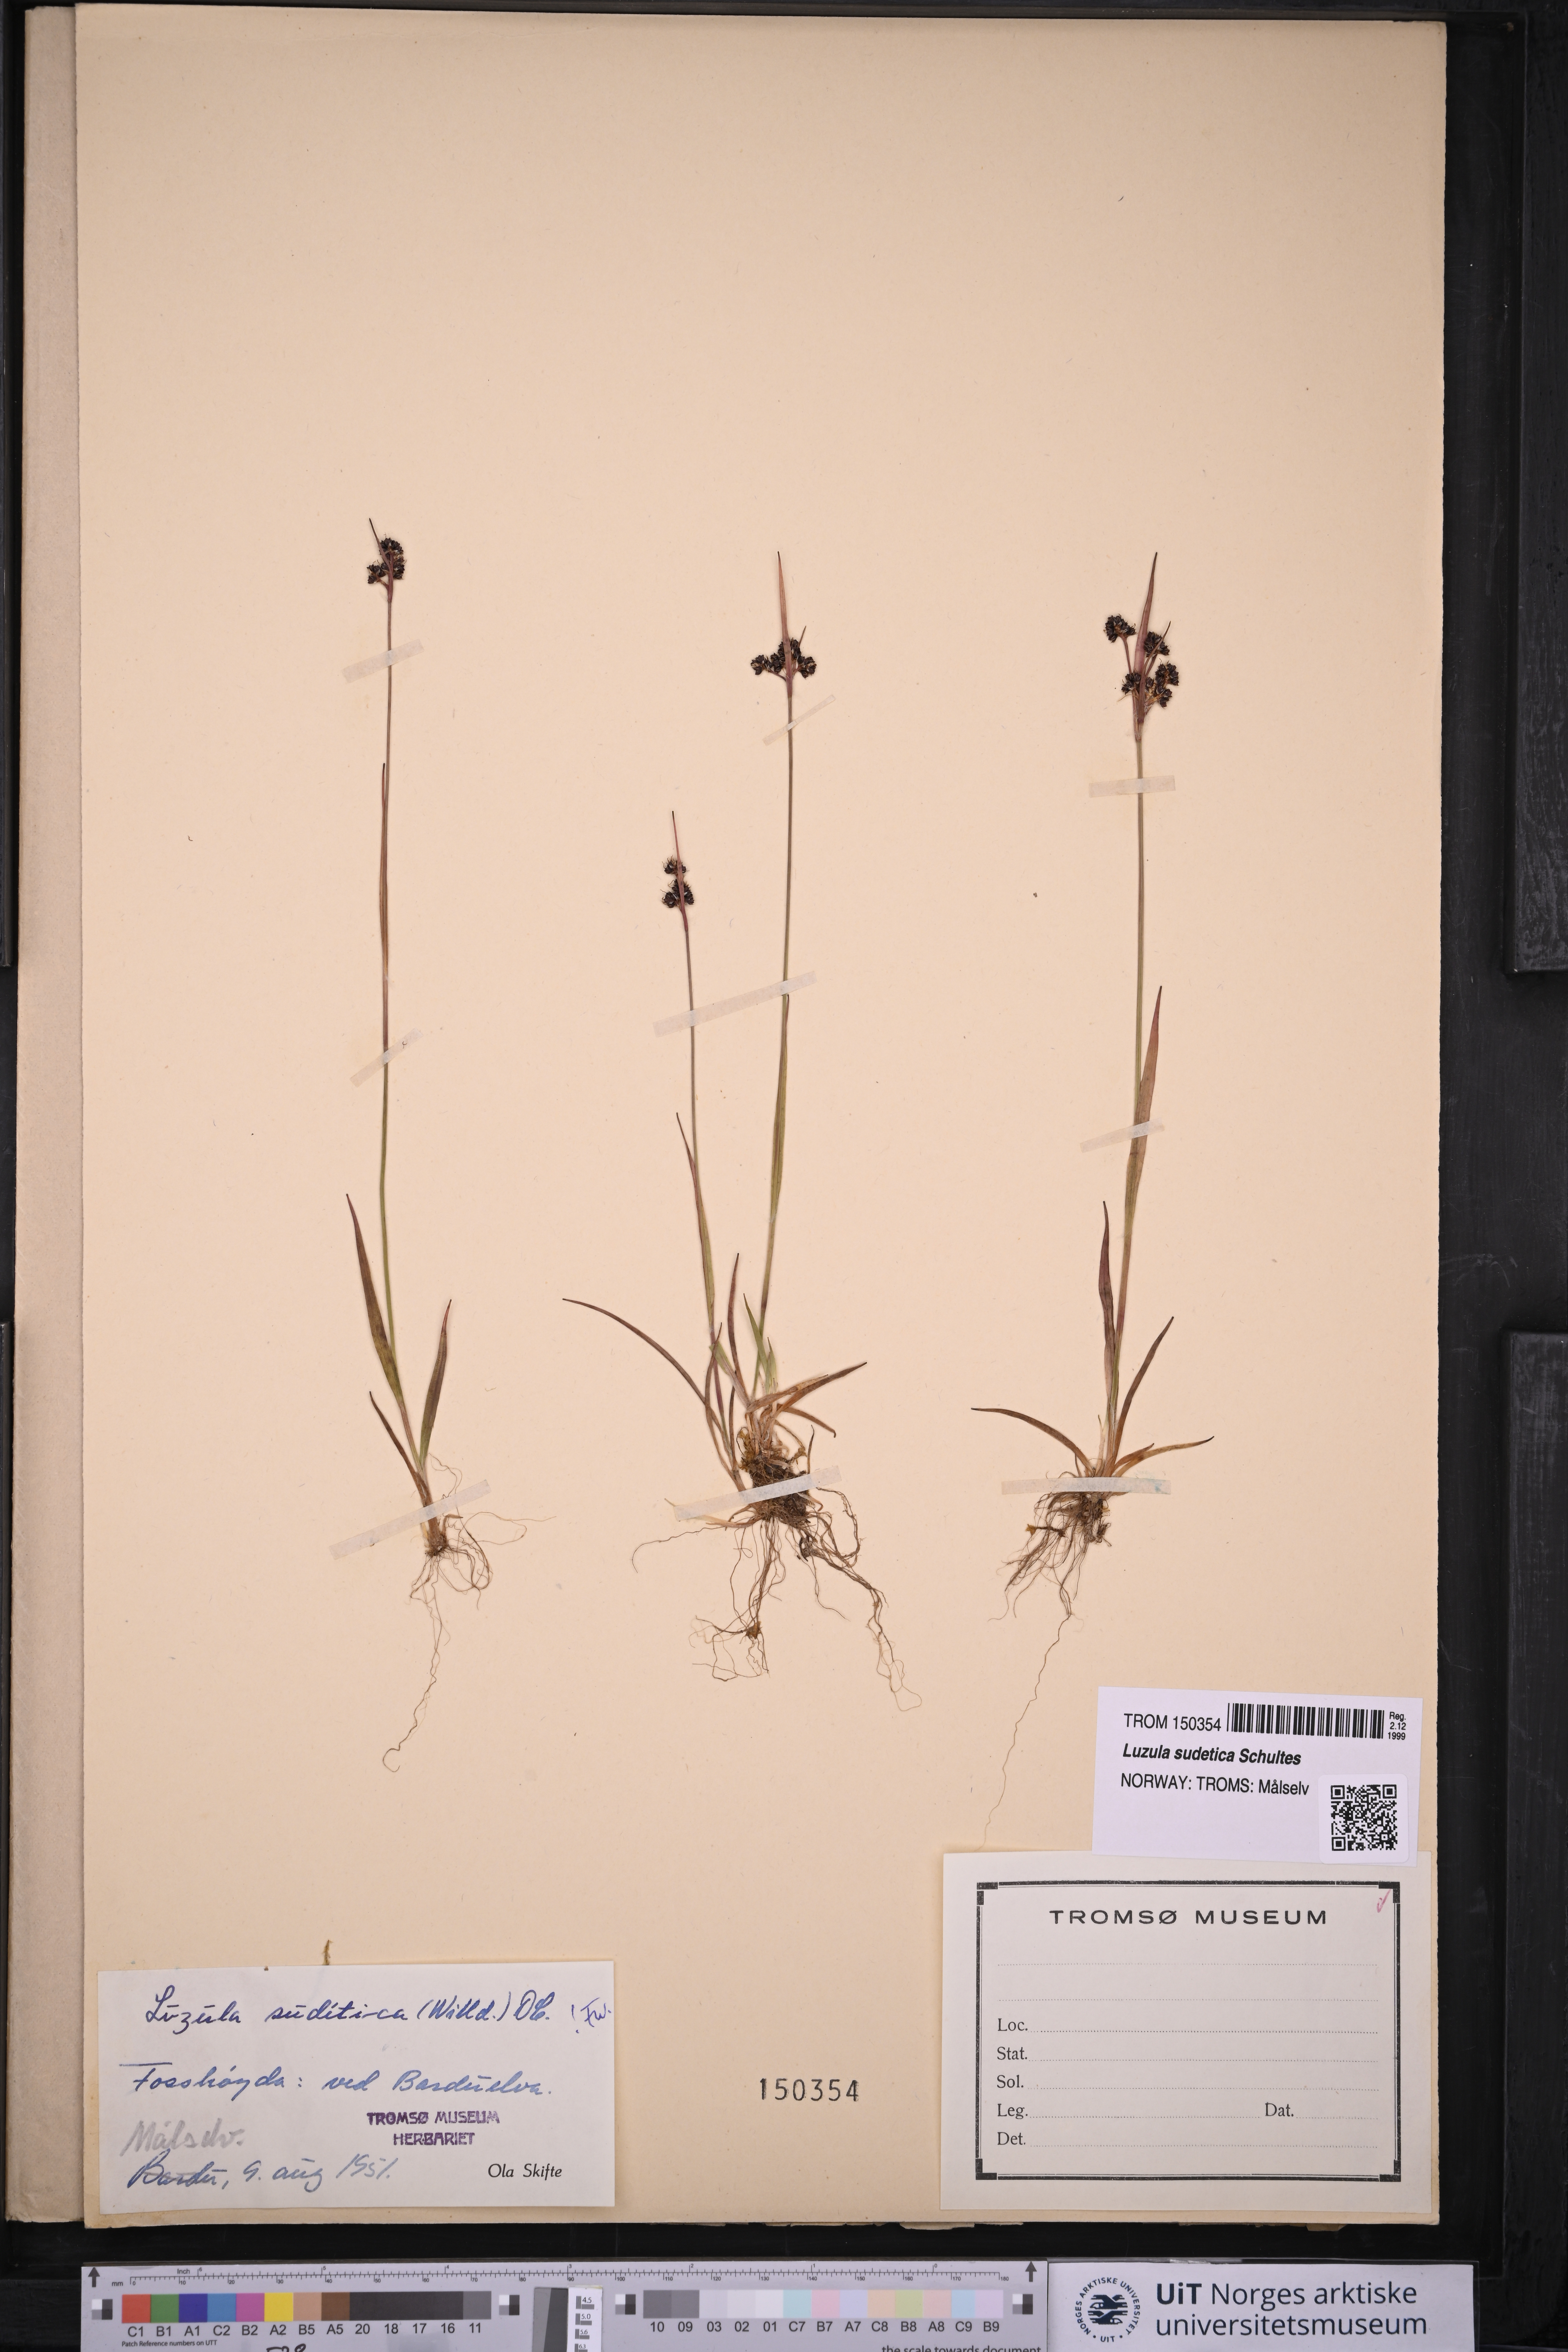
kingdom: Plantae
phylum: Tracheophyta
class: Liliopsida
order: Poales
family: Juncaceae
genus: Luzula
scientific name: Luzula sudetica
